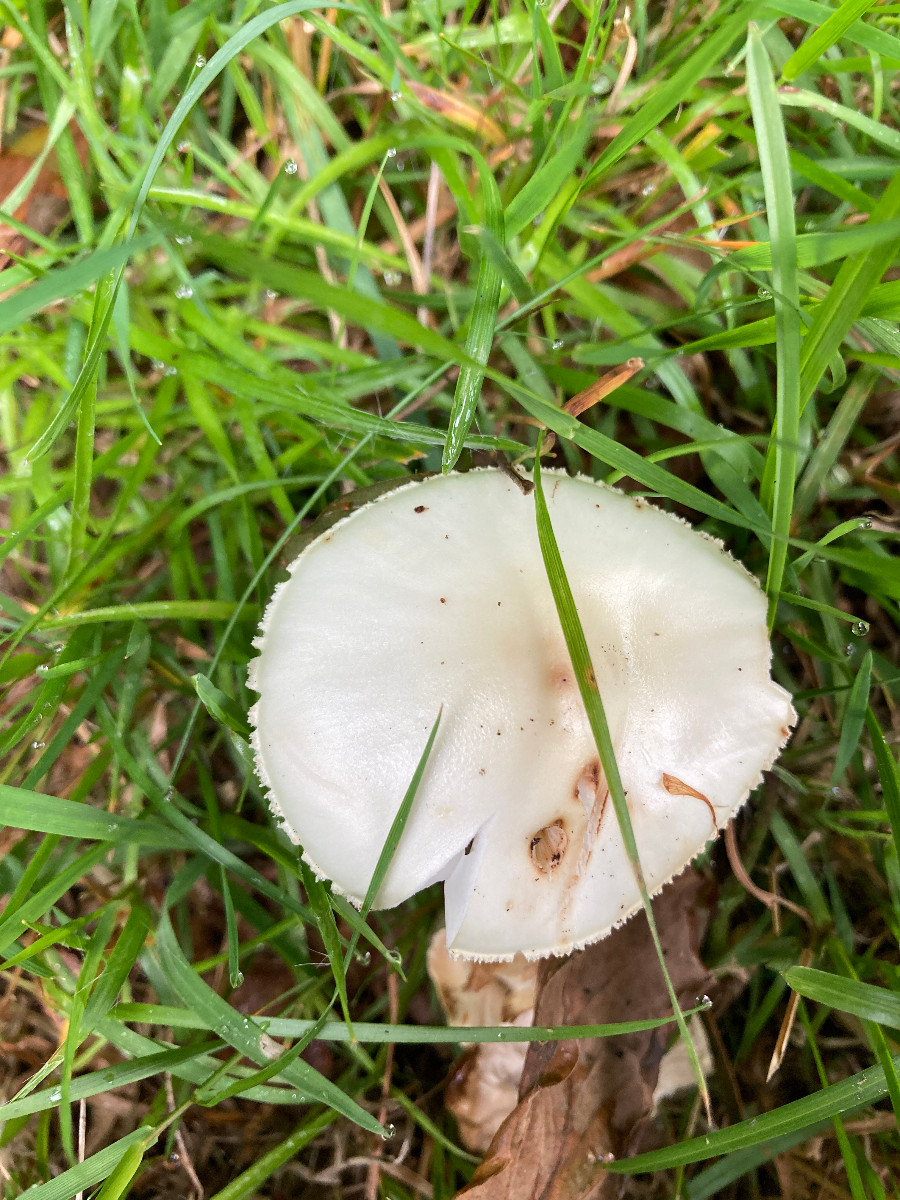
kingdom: Fungi
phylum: Basidiomycota
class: Agaricomycetes
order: Agaricales
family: Amanitaceae
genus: Amanita
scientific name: Amanita citrina
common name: kugleknoldet fluesvamp
